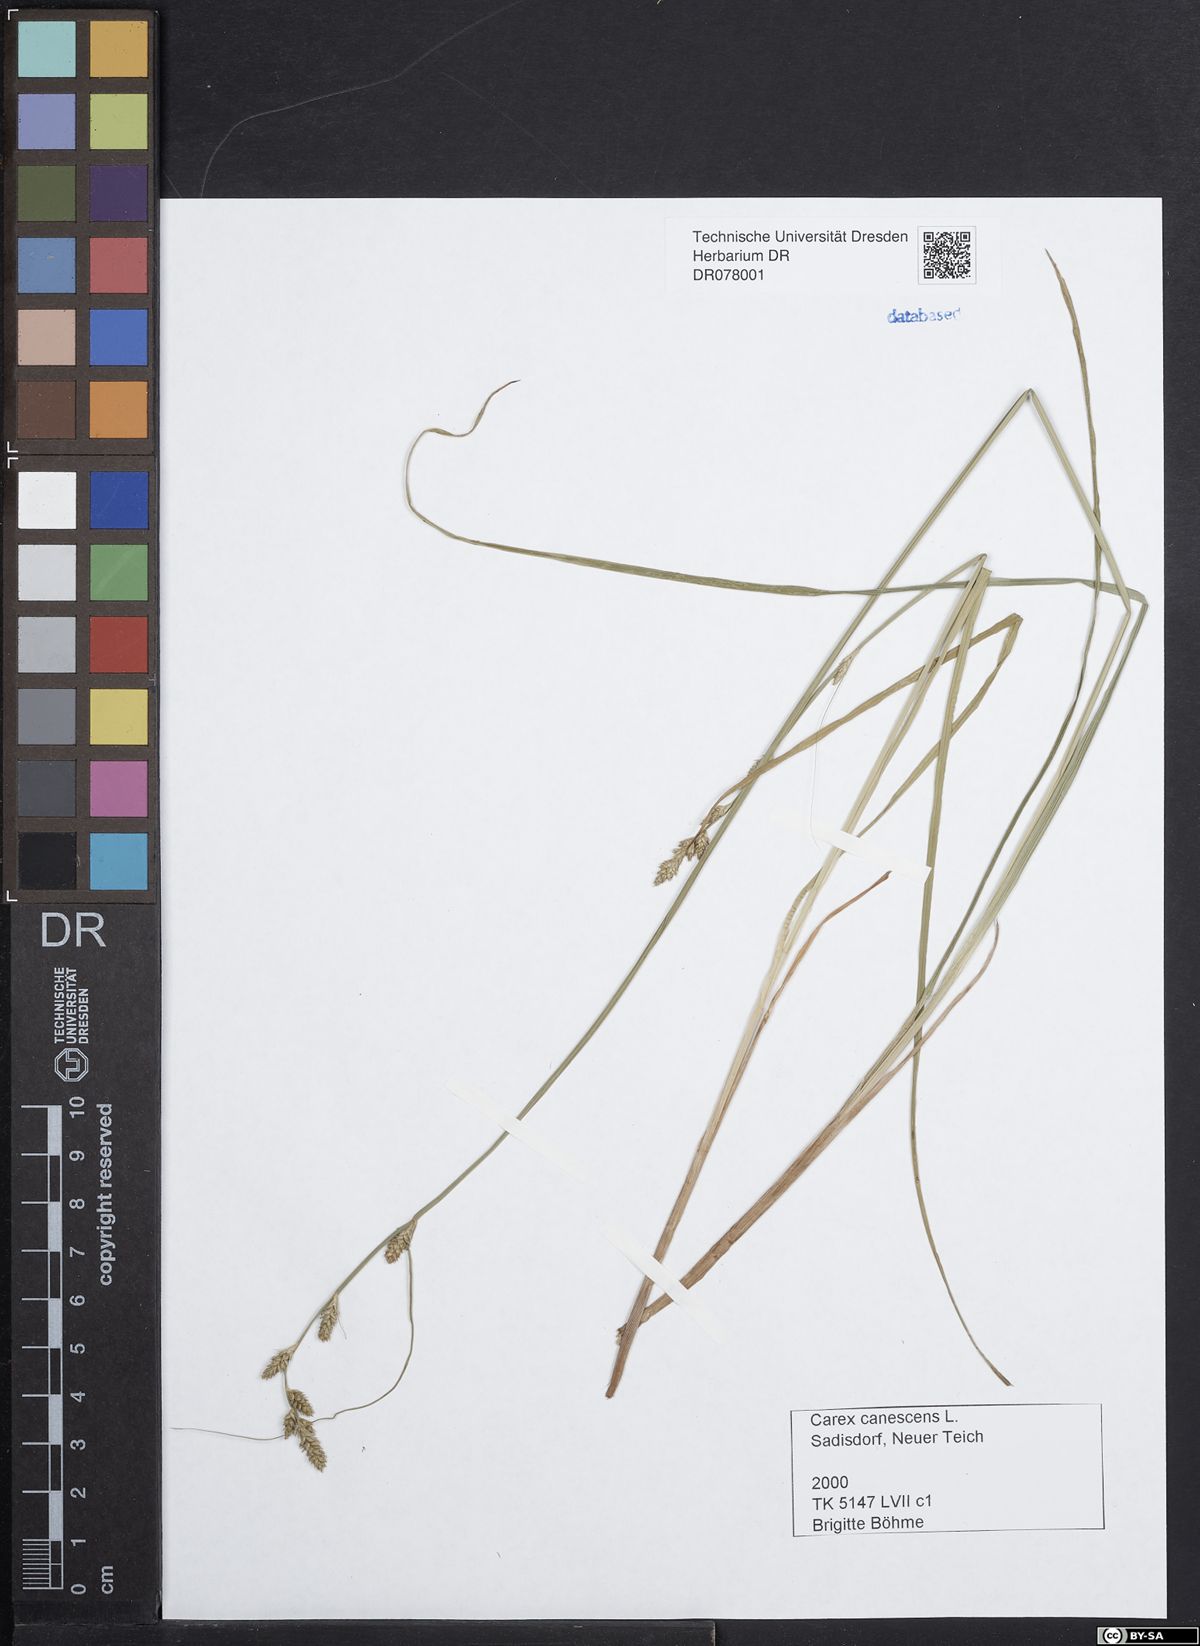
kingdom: Plantae
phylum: Tracheophyta
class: Liliopsida
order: Poales
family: Cyperaceae
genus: Carex
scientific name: Carex canescens
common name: White sedge
